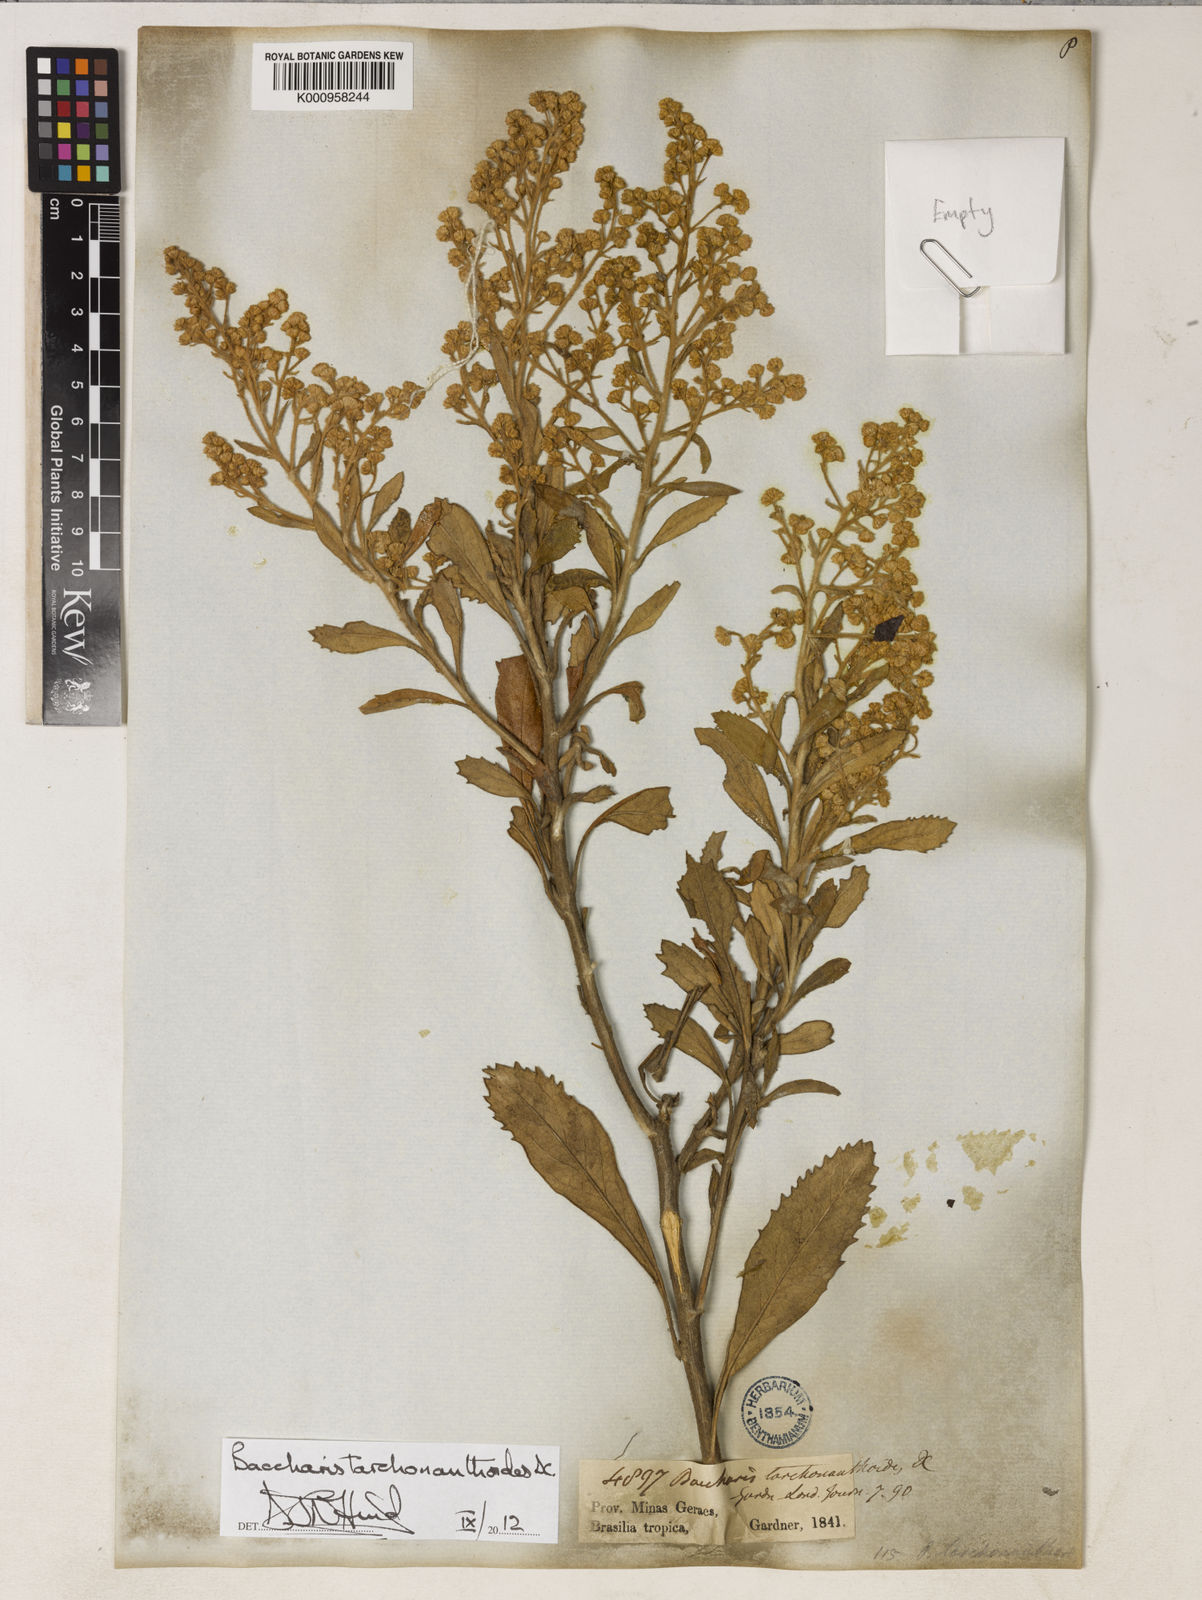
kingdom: Plantae
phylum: Tracheophyta
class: Magnoliopsida
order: Asterales
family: Asteraceae
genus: Baccharis
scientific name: Baccharis tarchonanthoides
